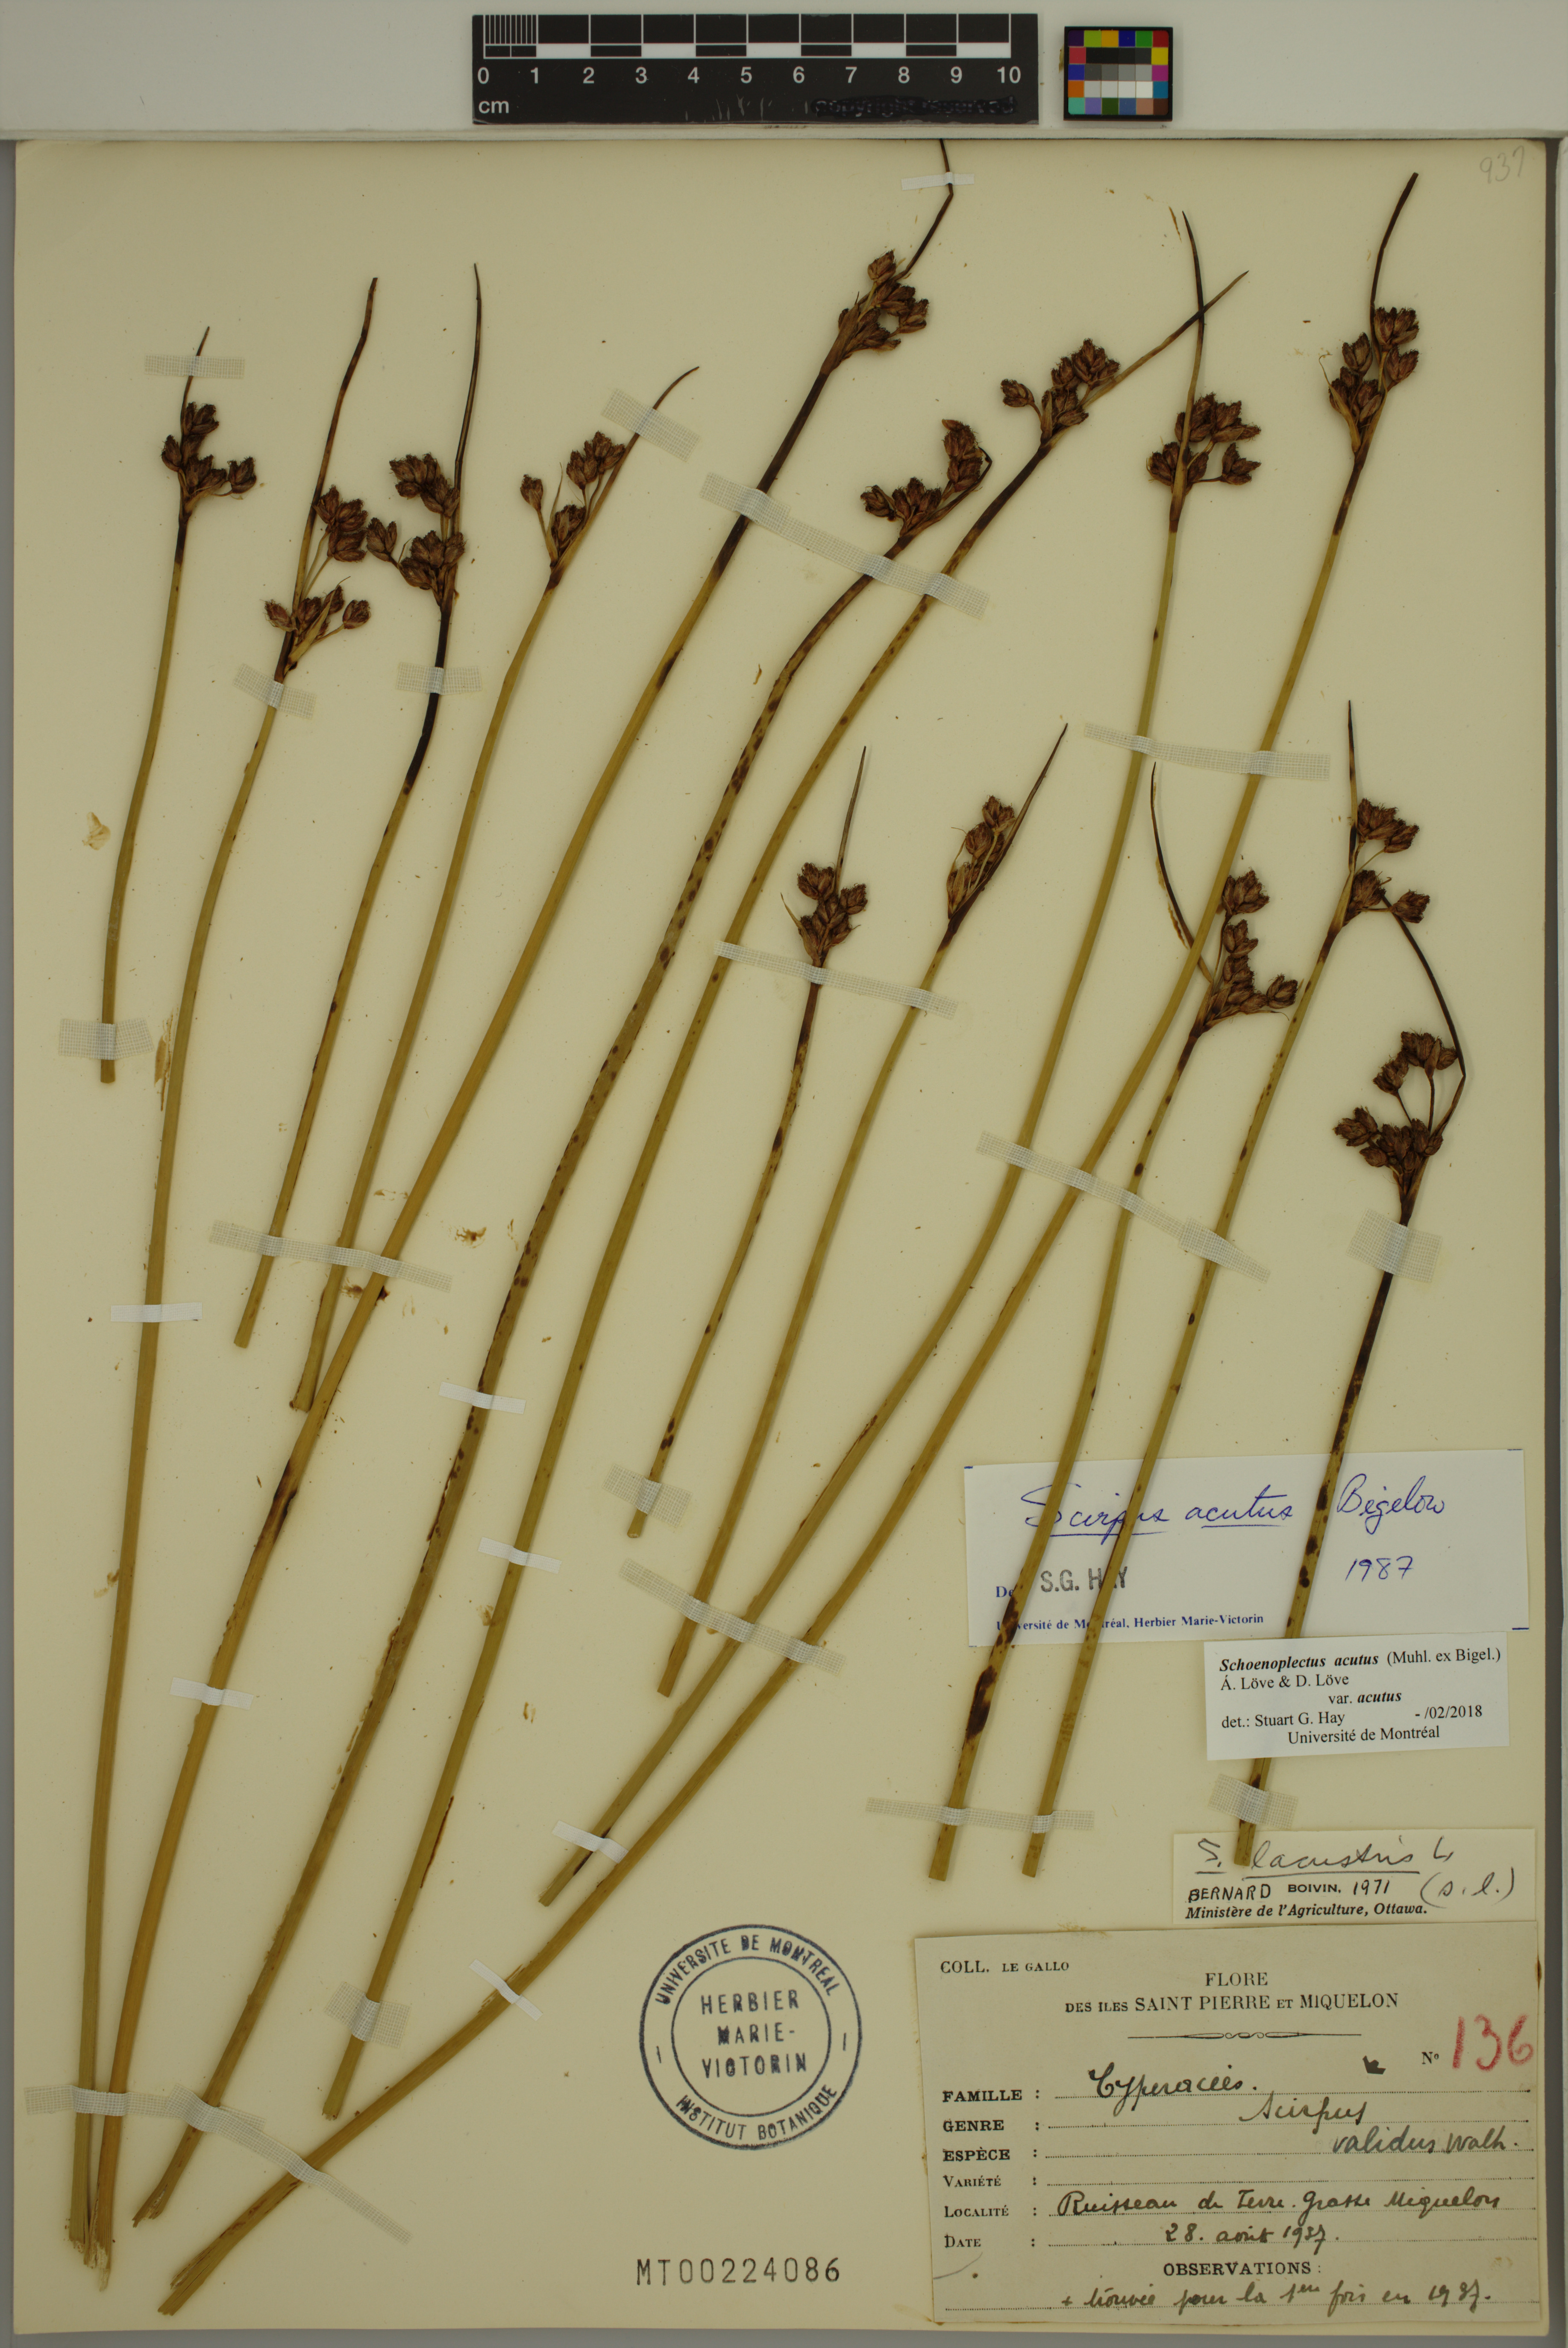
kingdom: Plantae
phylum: Tracheophyta
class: Liliopsida
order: Poales
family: Cyperaceae
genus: Schoenoplectus
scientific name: Schoenoplectus acutus
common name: Hardstem bulrush
